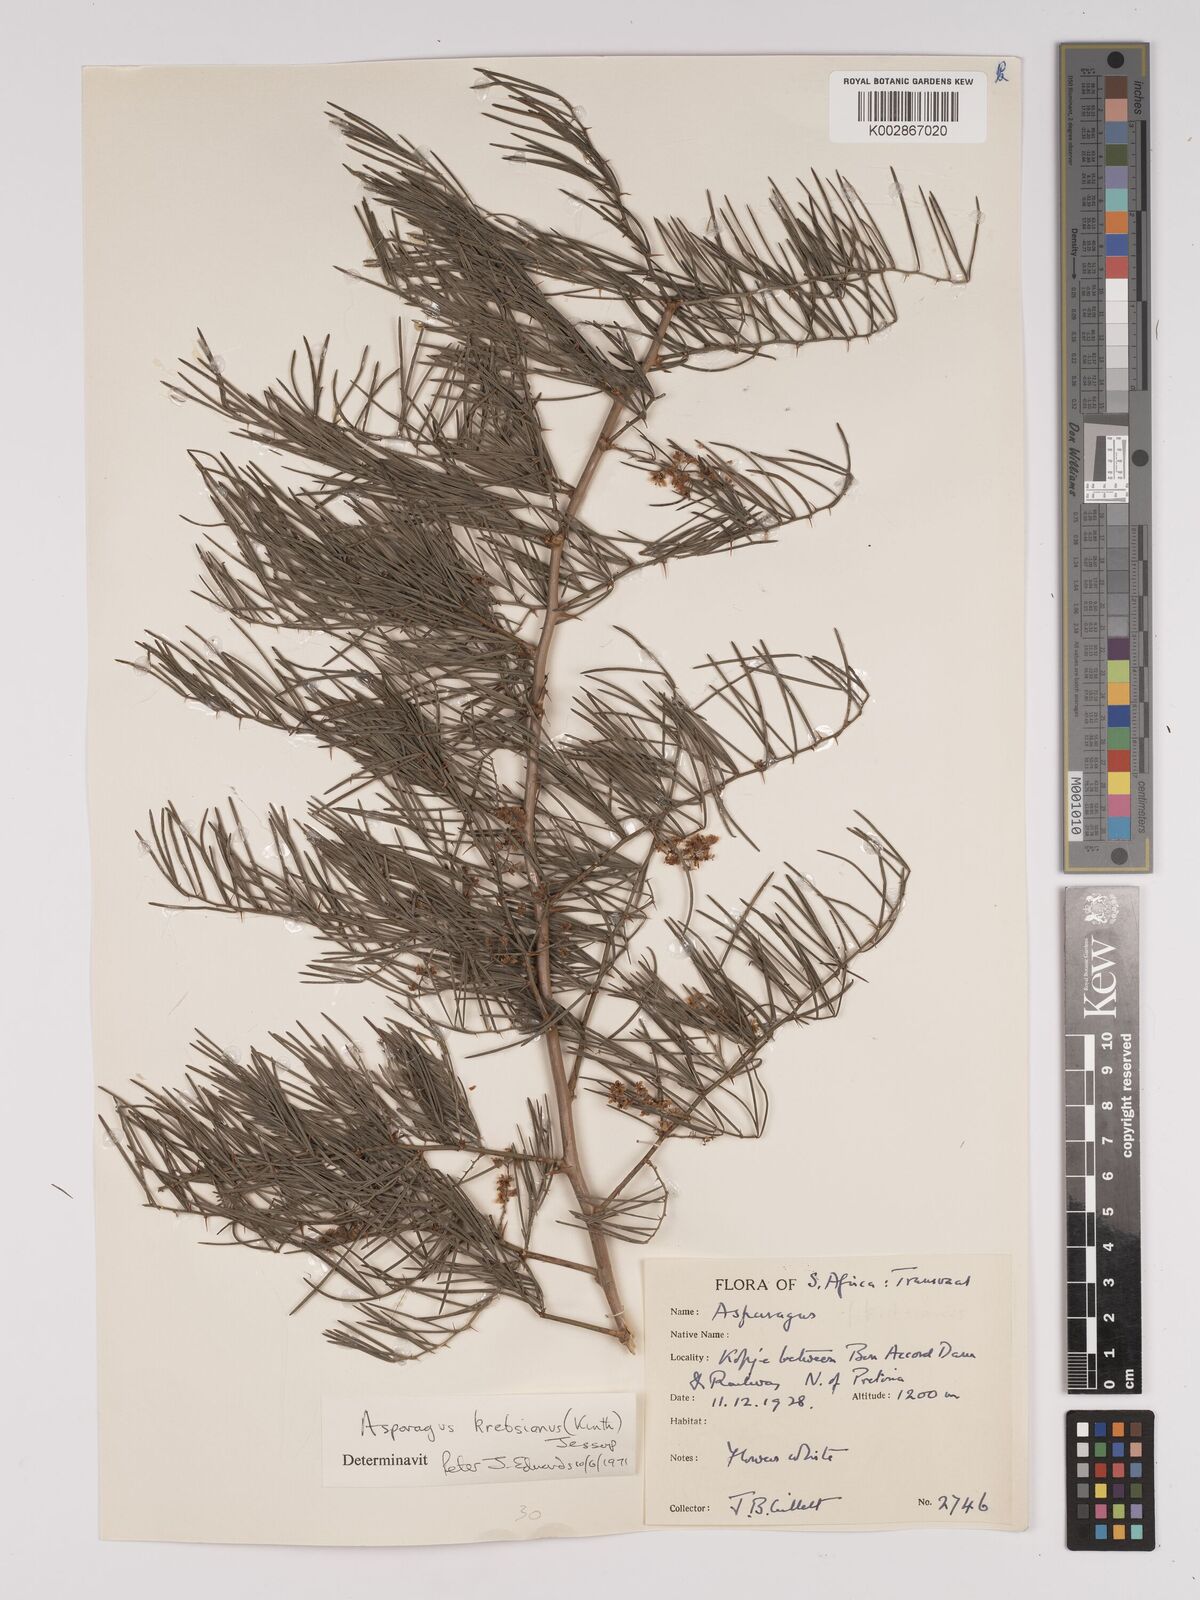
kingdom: Plantae
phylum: Tracheophyta
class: Liliopsida
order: Asparagales
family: Asparagaceae
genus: Asparagus
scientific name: Asparagus krebsianus
